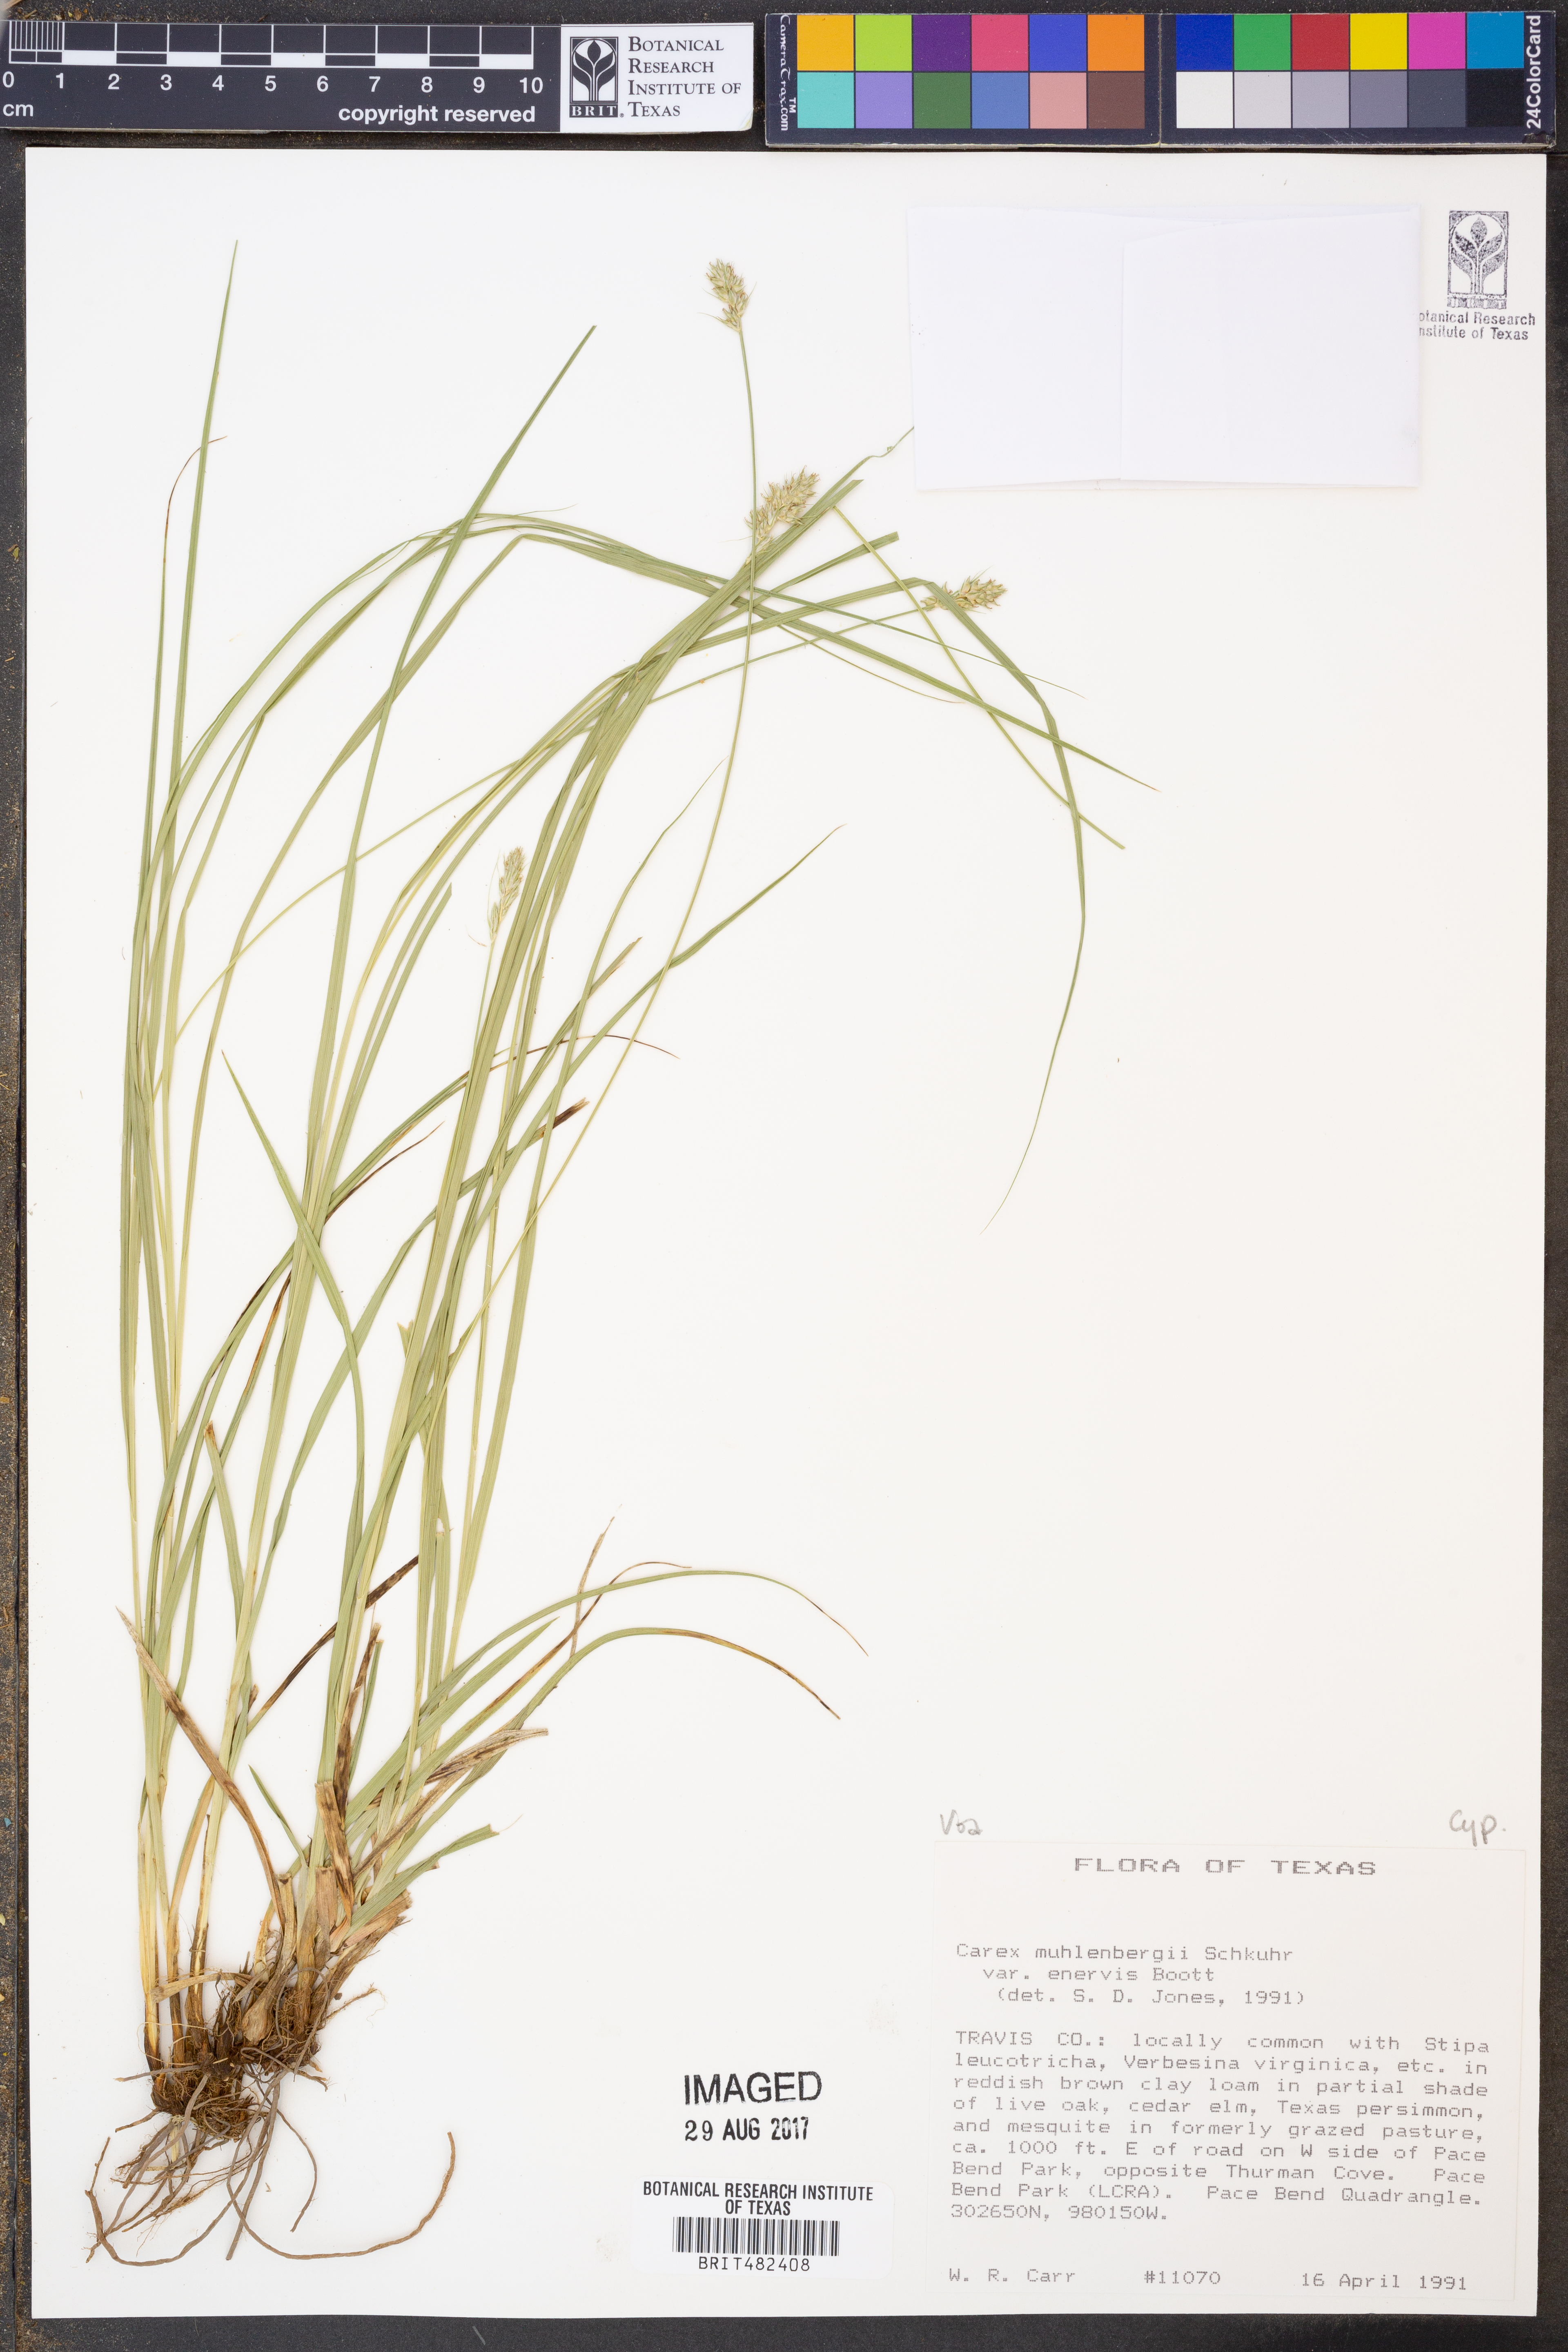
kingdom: Plantae
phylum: Tracheophyta
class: Liliopsida
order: Poales
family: Cyperaceae
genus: Carex
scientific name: Carex vulpinoidea
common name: American fox-sedge
